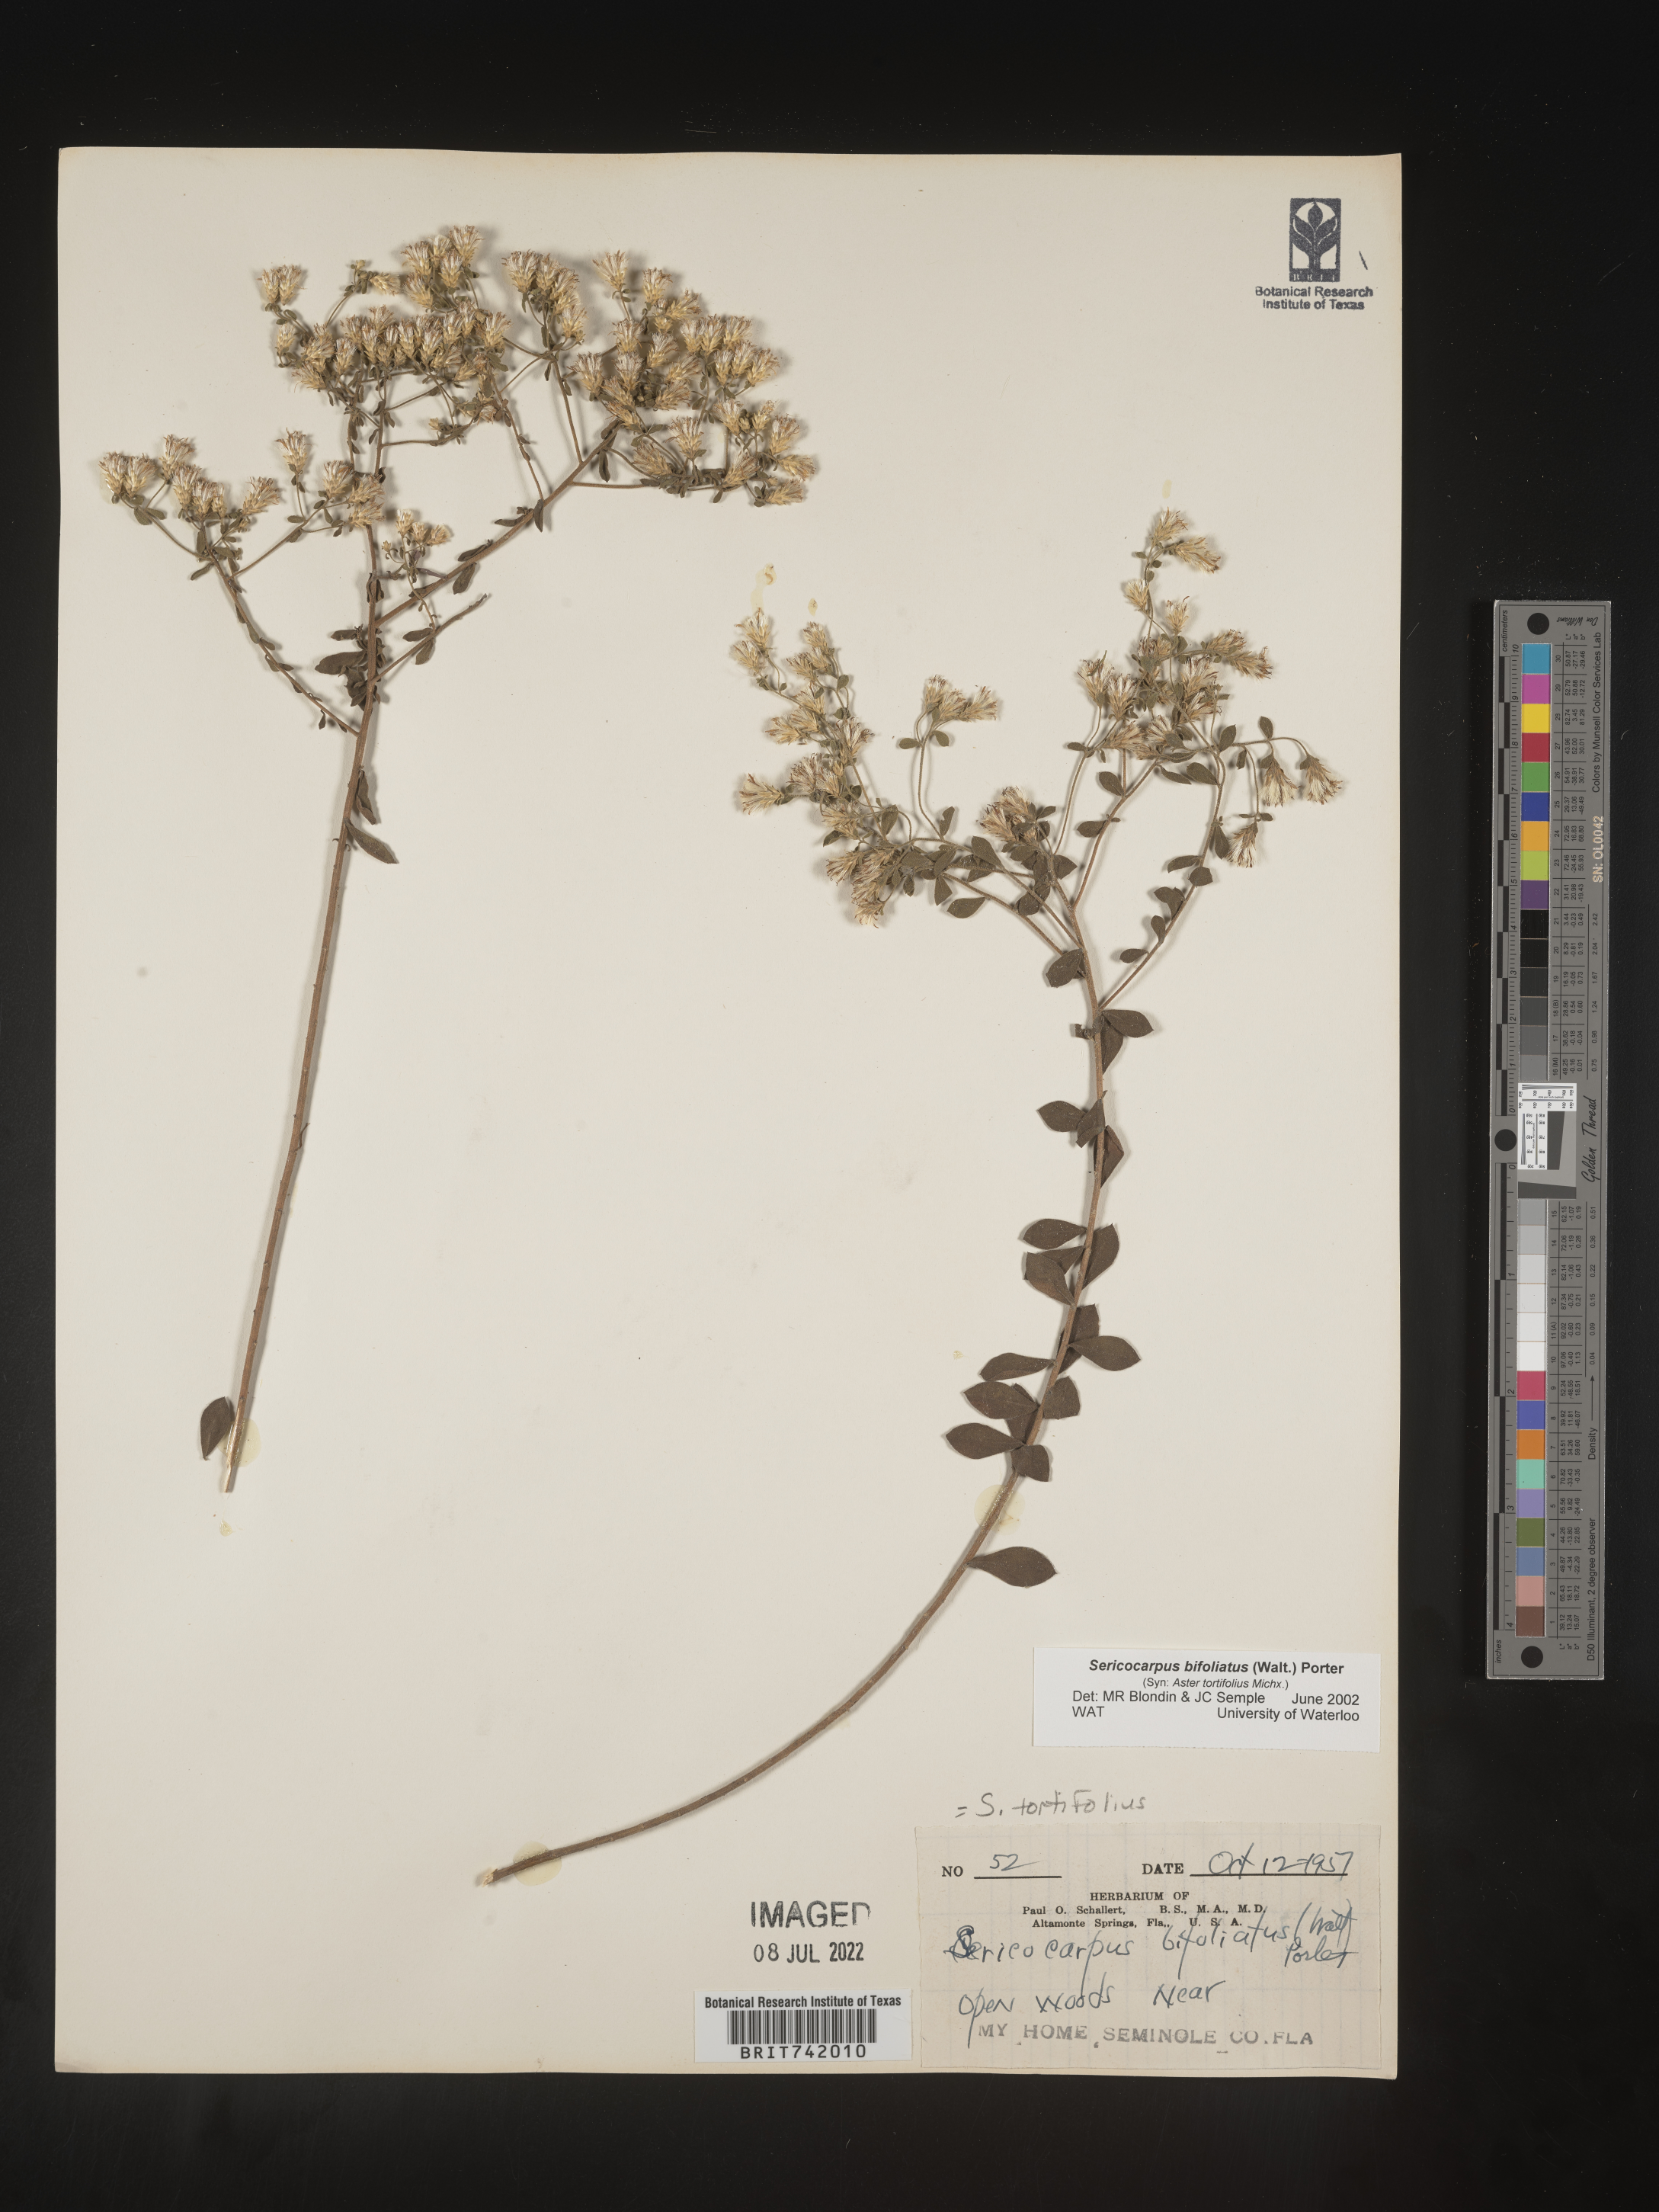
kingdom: Plantae
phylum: Tracheophyta
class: Magnoliopsida
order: Asterales
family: Asteraceae
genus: Sericocarpus
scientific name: Sericocarpus tortifolius
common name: Dixie aster
